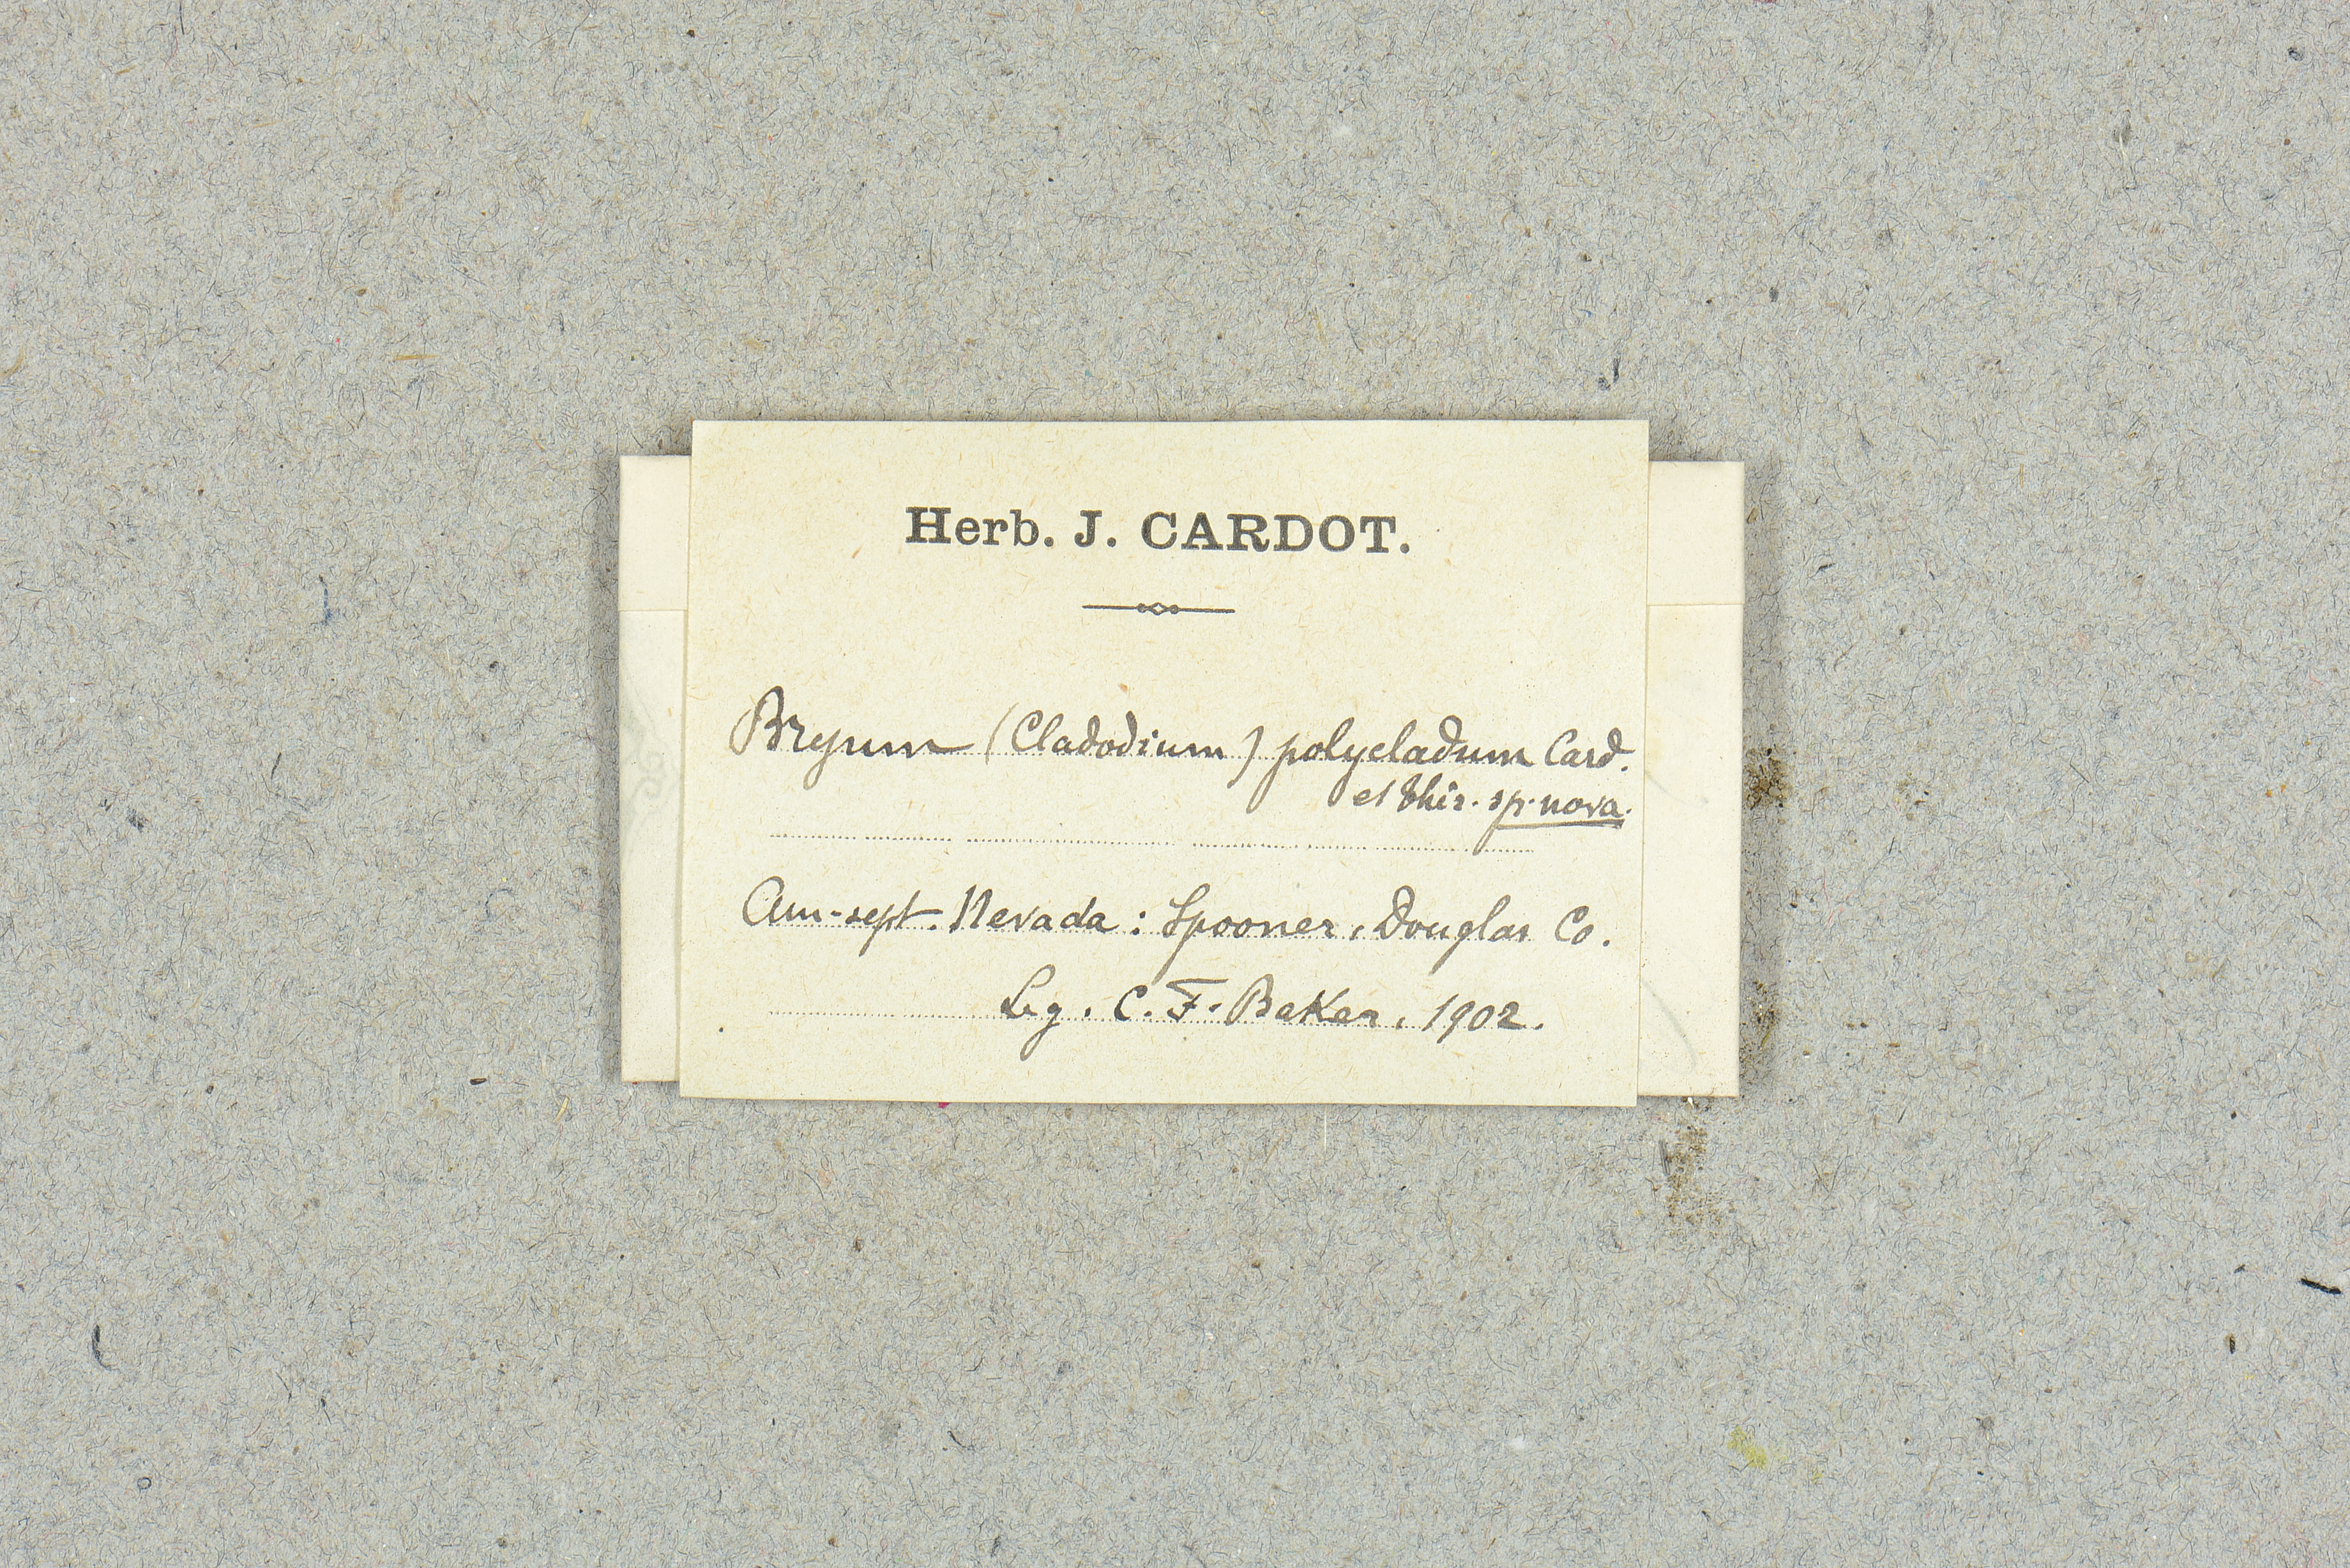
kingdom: Plantae
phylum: Bryophyta
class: Bryopsida
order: Bryales
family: Bryaceae
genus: Ptychostomum
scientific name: Ptychostomum lonchocaulon
